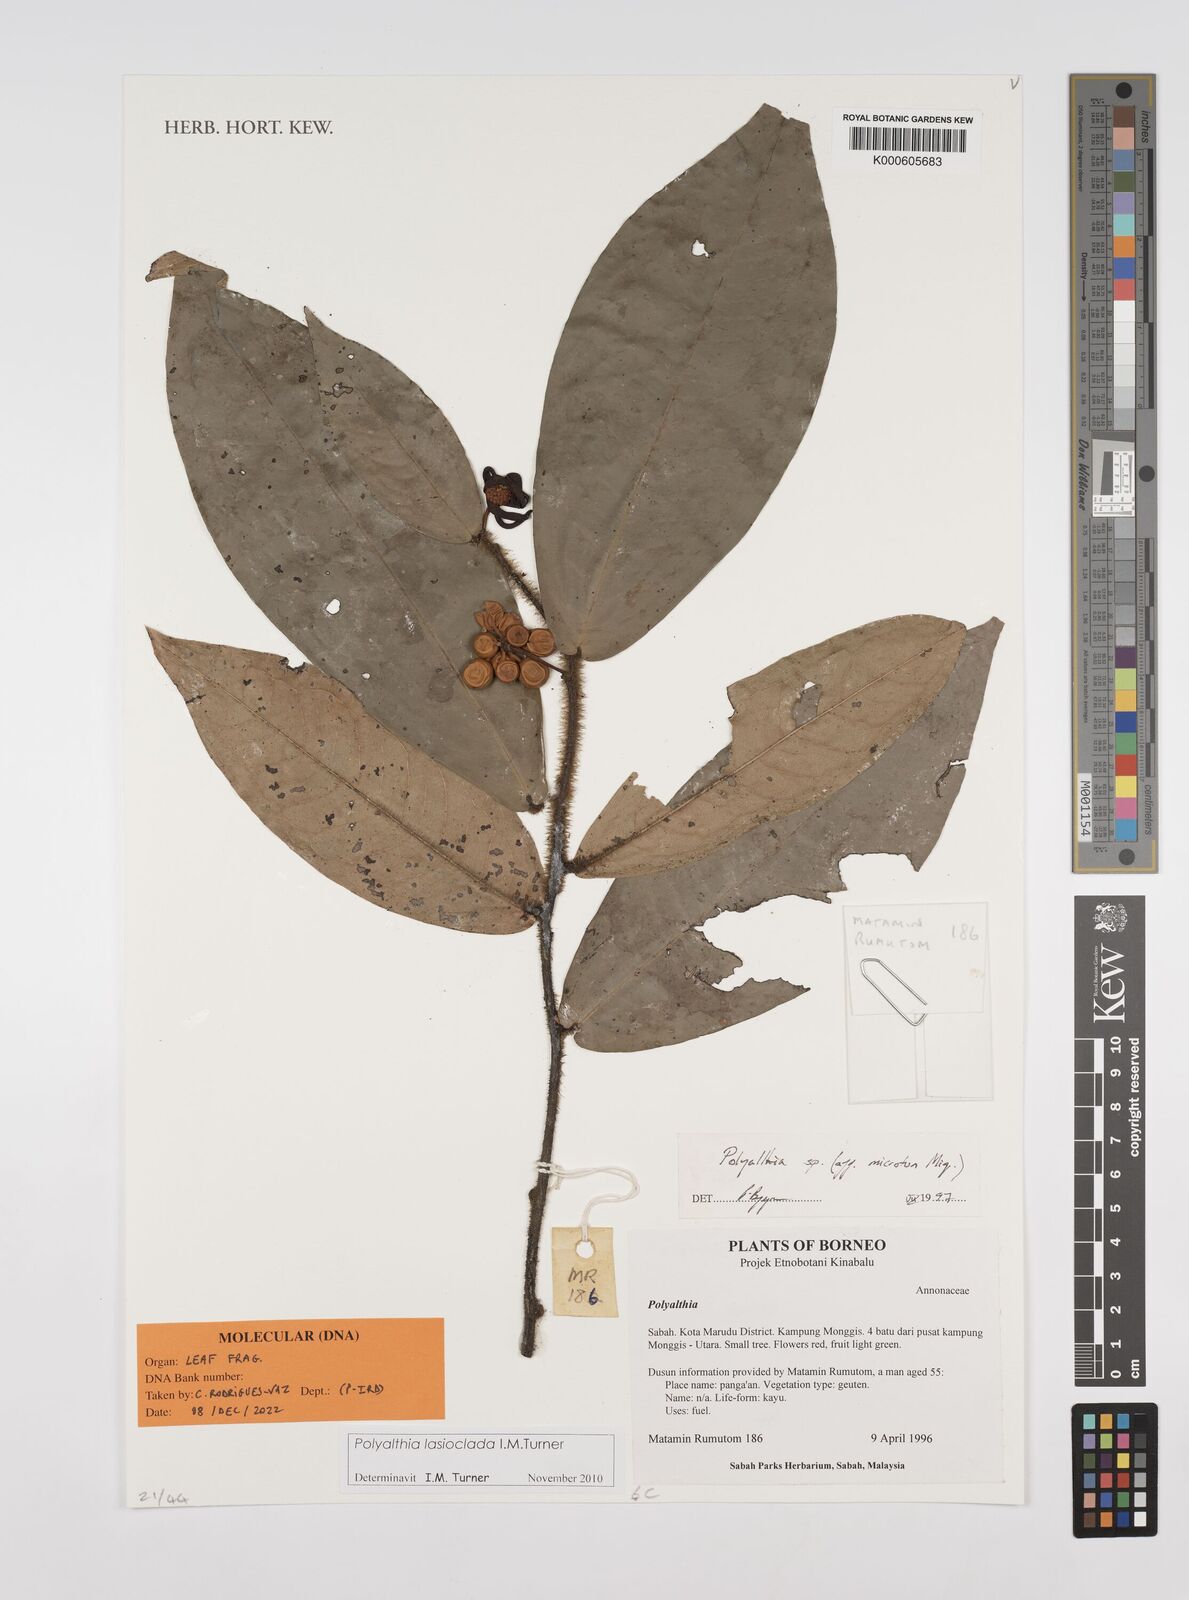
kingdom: Plantae
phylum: Tracheophyta
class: Magnoliopsida
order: Magnoliales
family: Annonaceae
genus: Polyalthia
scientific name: Polyalthia
